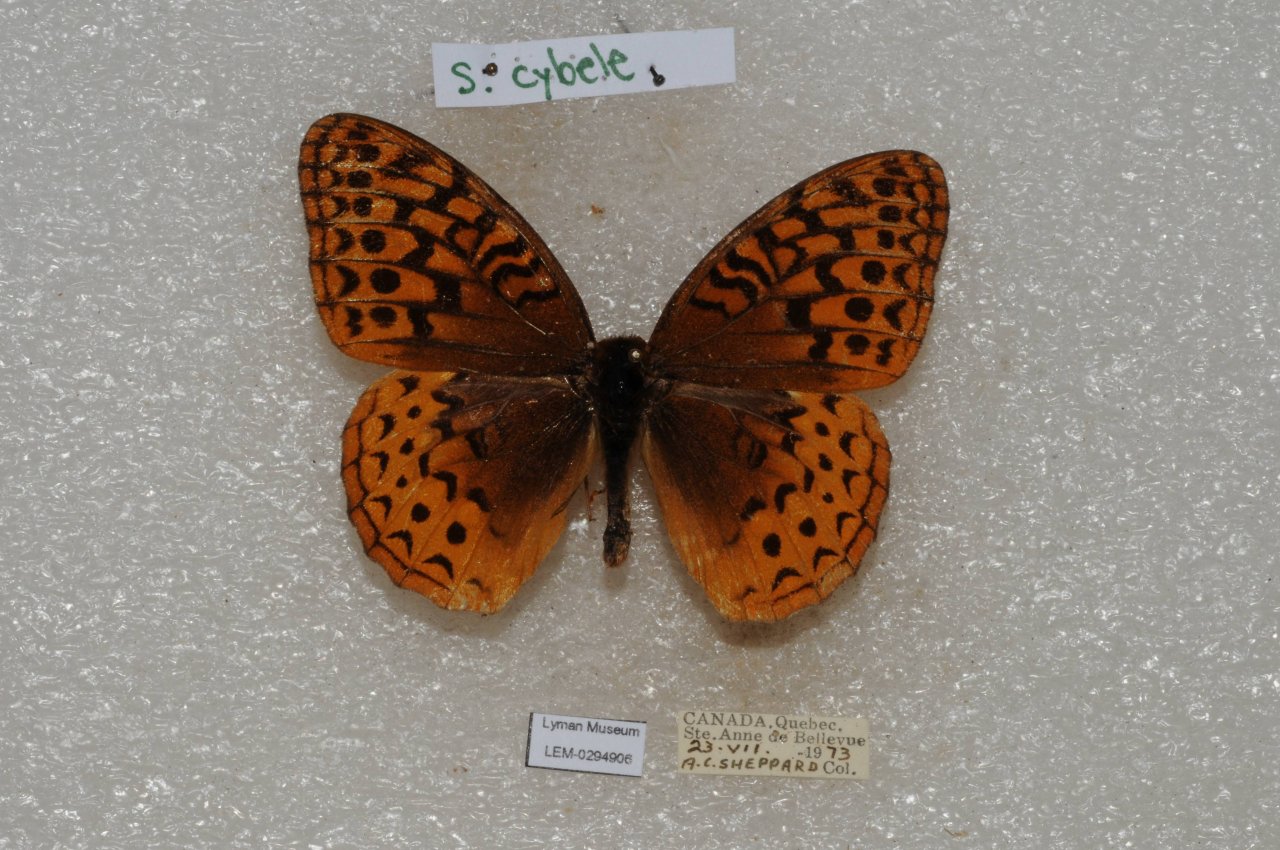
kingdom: Animalia
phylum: Arthropoda
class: Insecta
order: Lepidoptera
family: Nymphalidae
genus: Speyeria
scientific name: Speyeria cybele
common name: Great Spangled Fritillary
